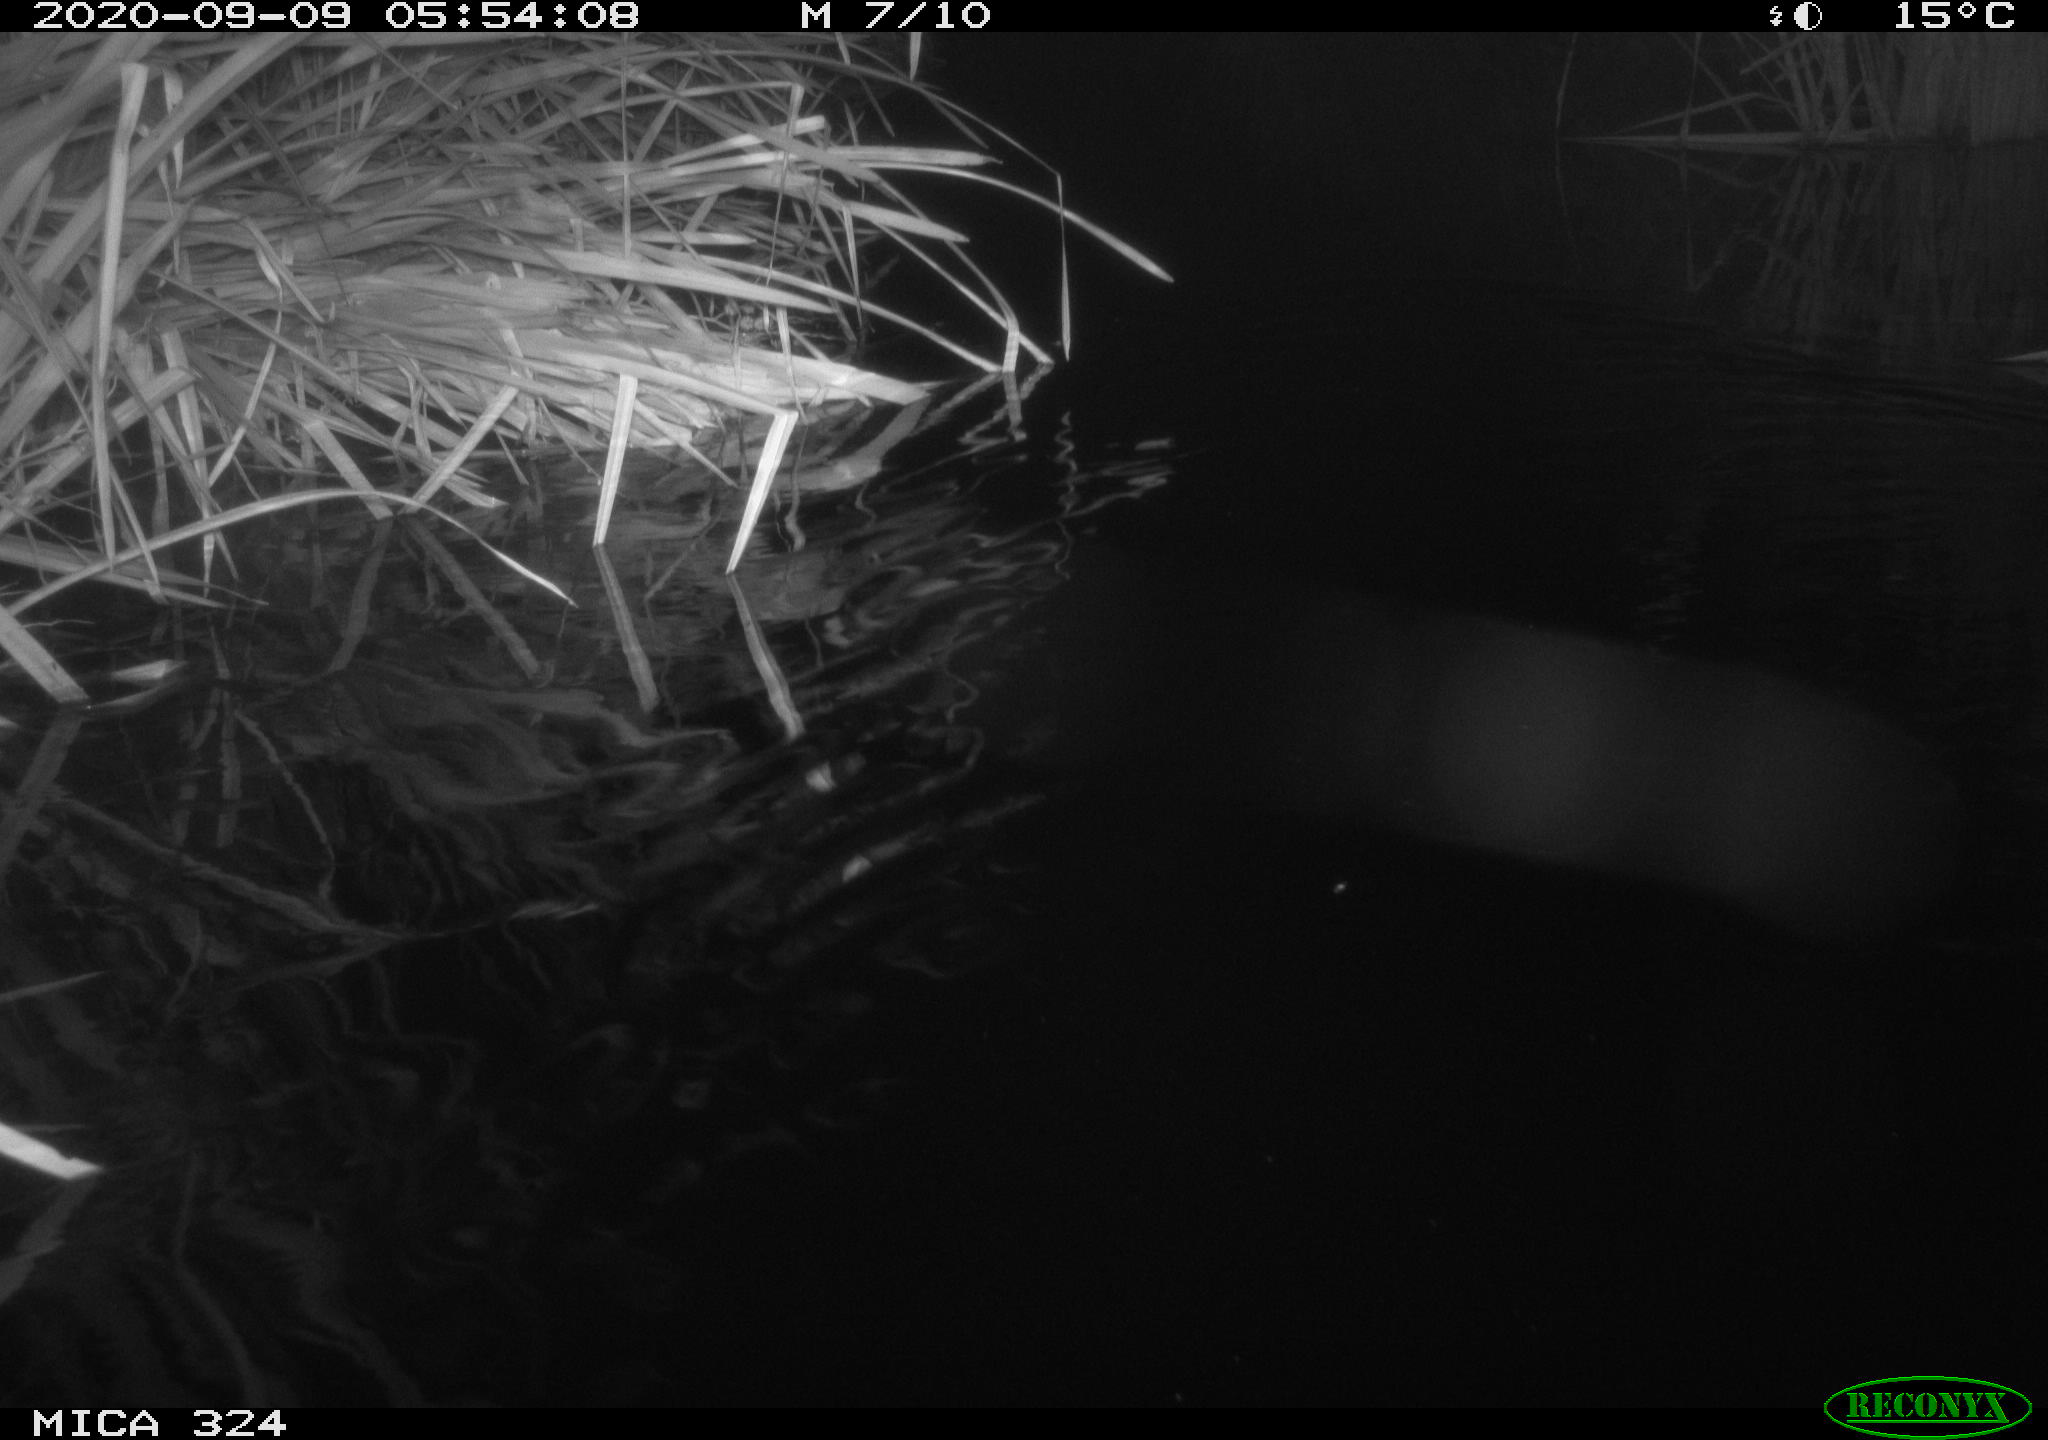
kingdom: Animalia
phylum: Chordata
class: Mammalia
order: Rodentia
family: Cricetidae
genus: Ondatra
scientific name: Ondatra zibethicus
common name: Muskrat
